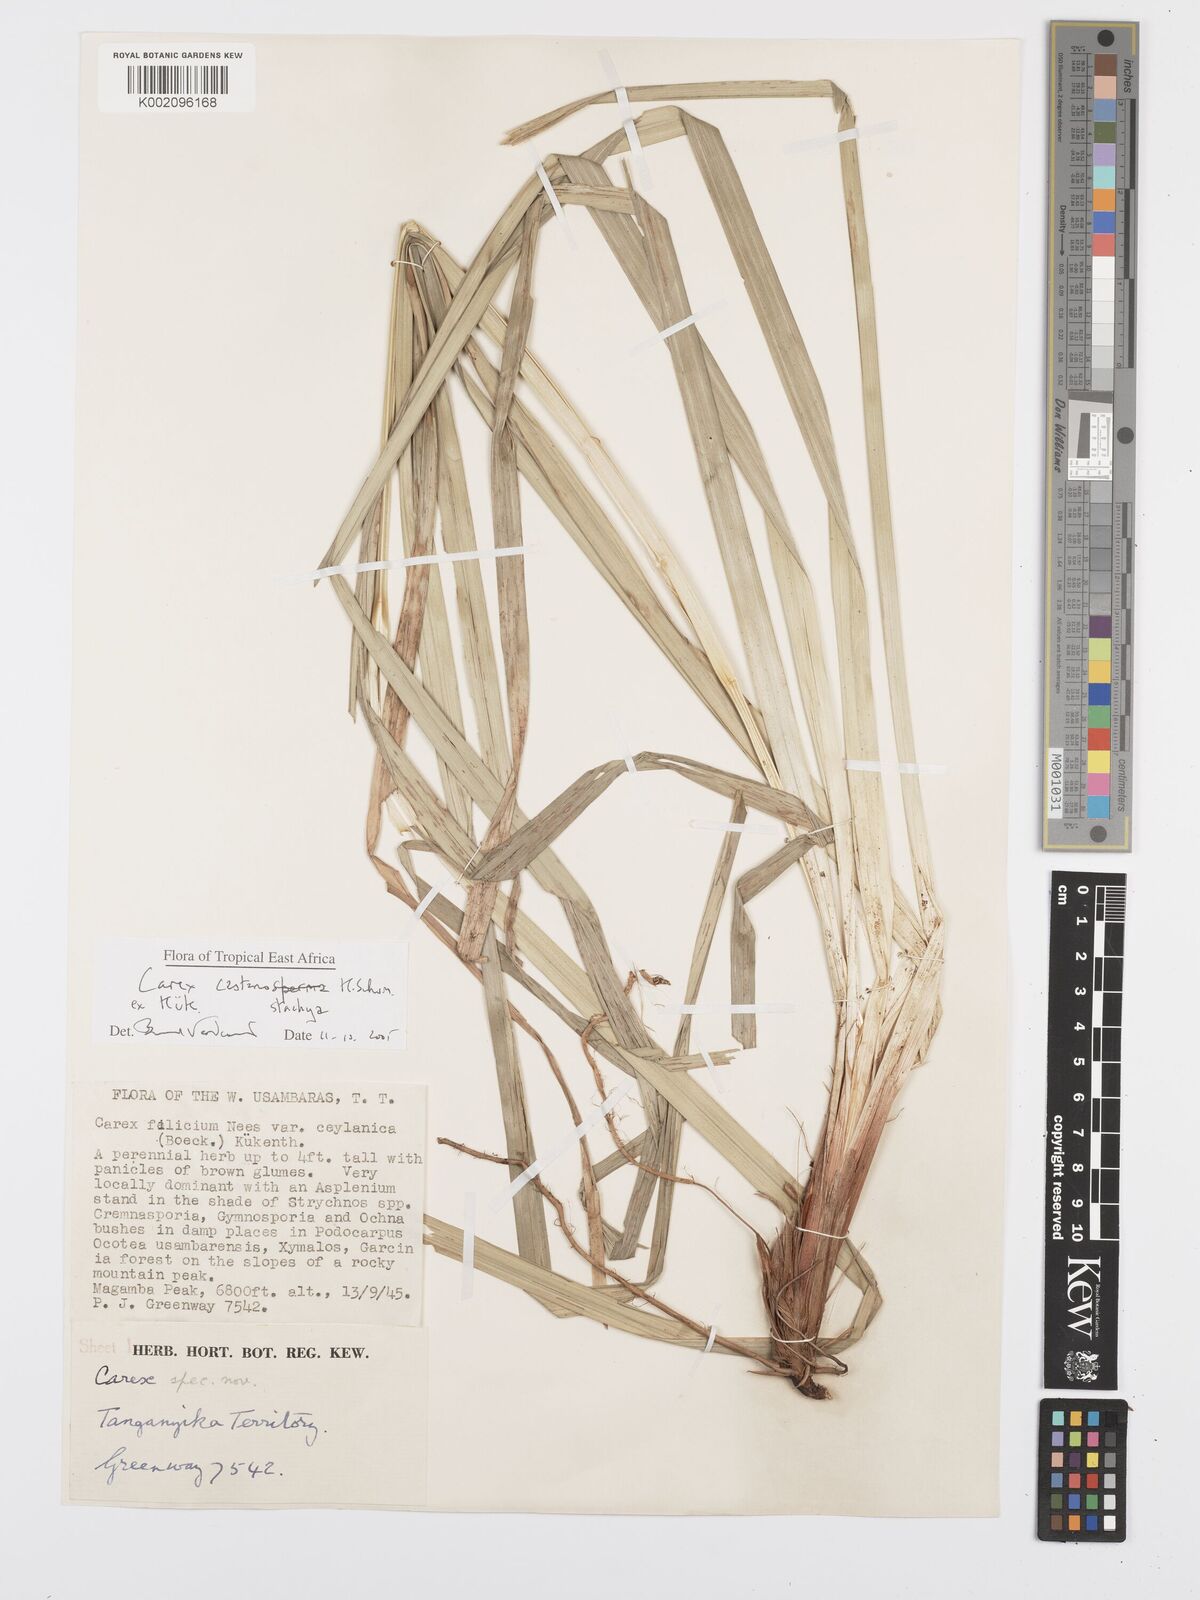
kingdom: Plantae
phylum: Tracheophyta
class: Liliopsida
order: Poales
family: Cyperaceae
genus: Carex
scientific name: Carex castanostachya
